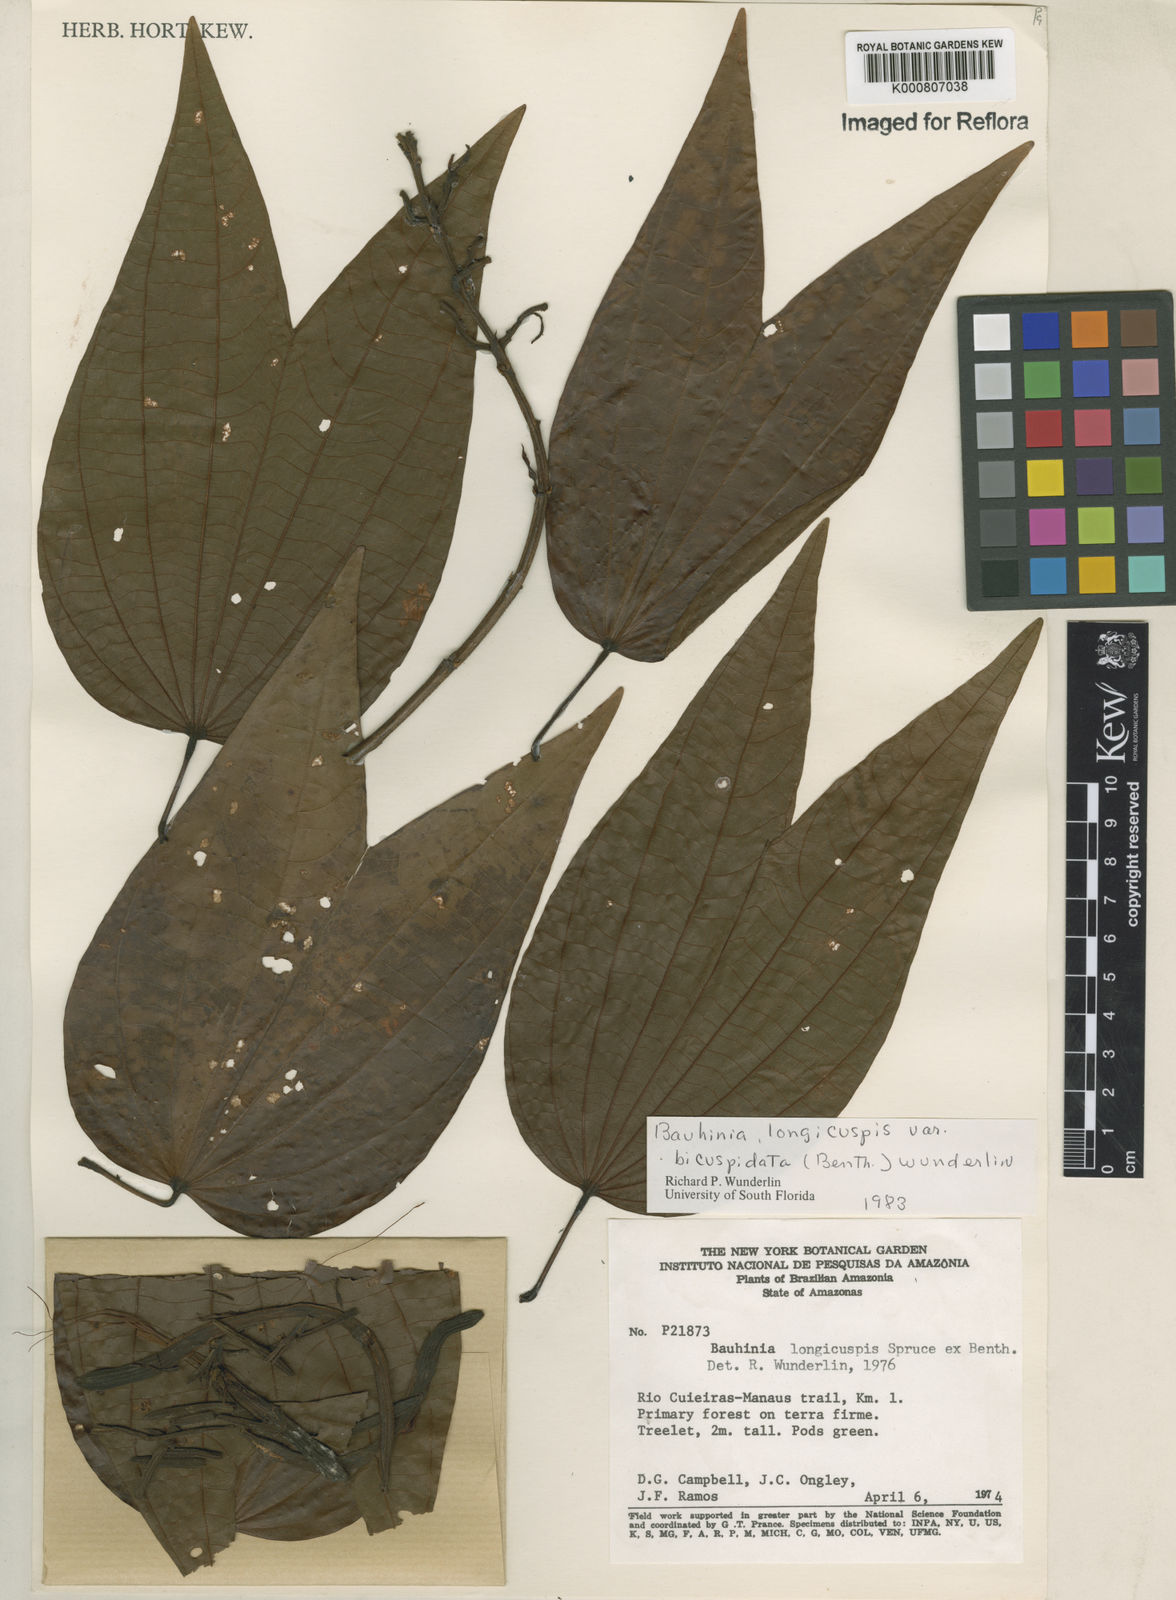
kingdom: Plantae
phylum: Tracheophyta
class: Magnoliopsida
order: Fabales
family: Fabaceae
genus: Bauhinia
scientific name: Bauhinia longicuspis
